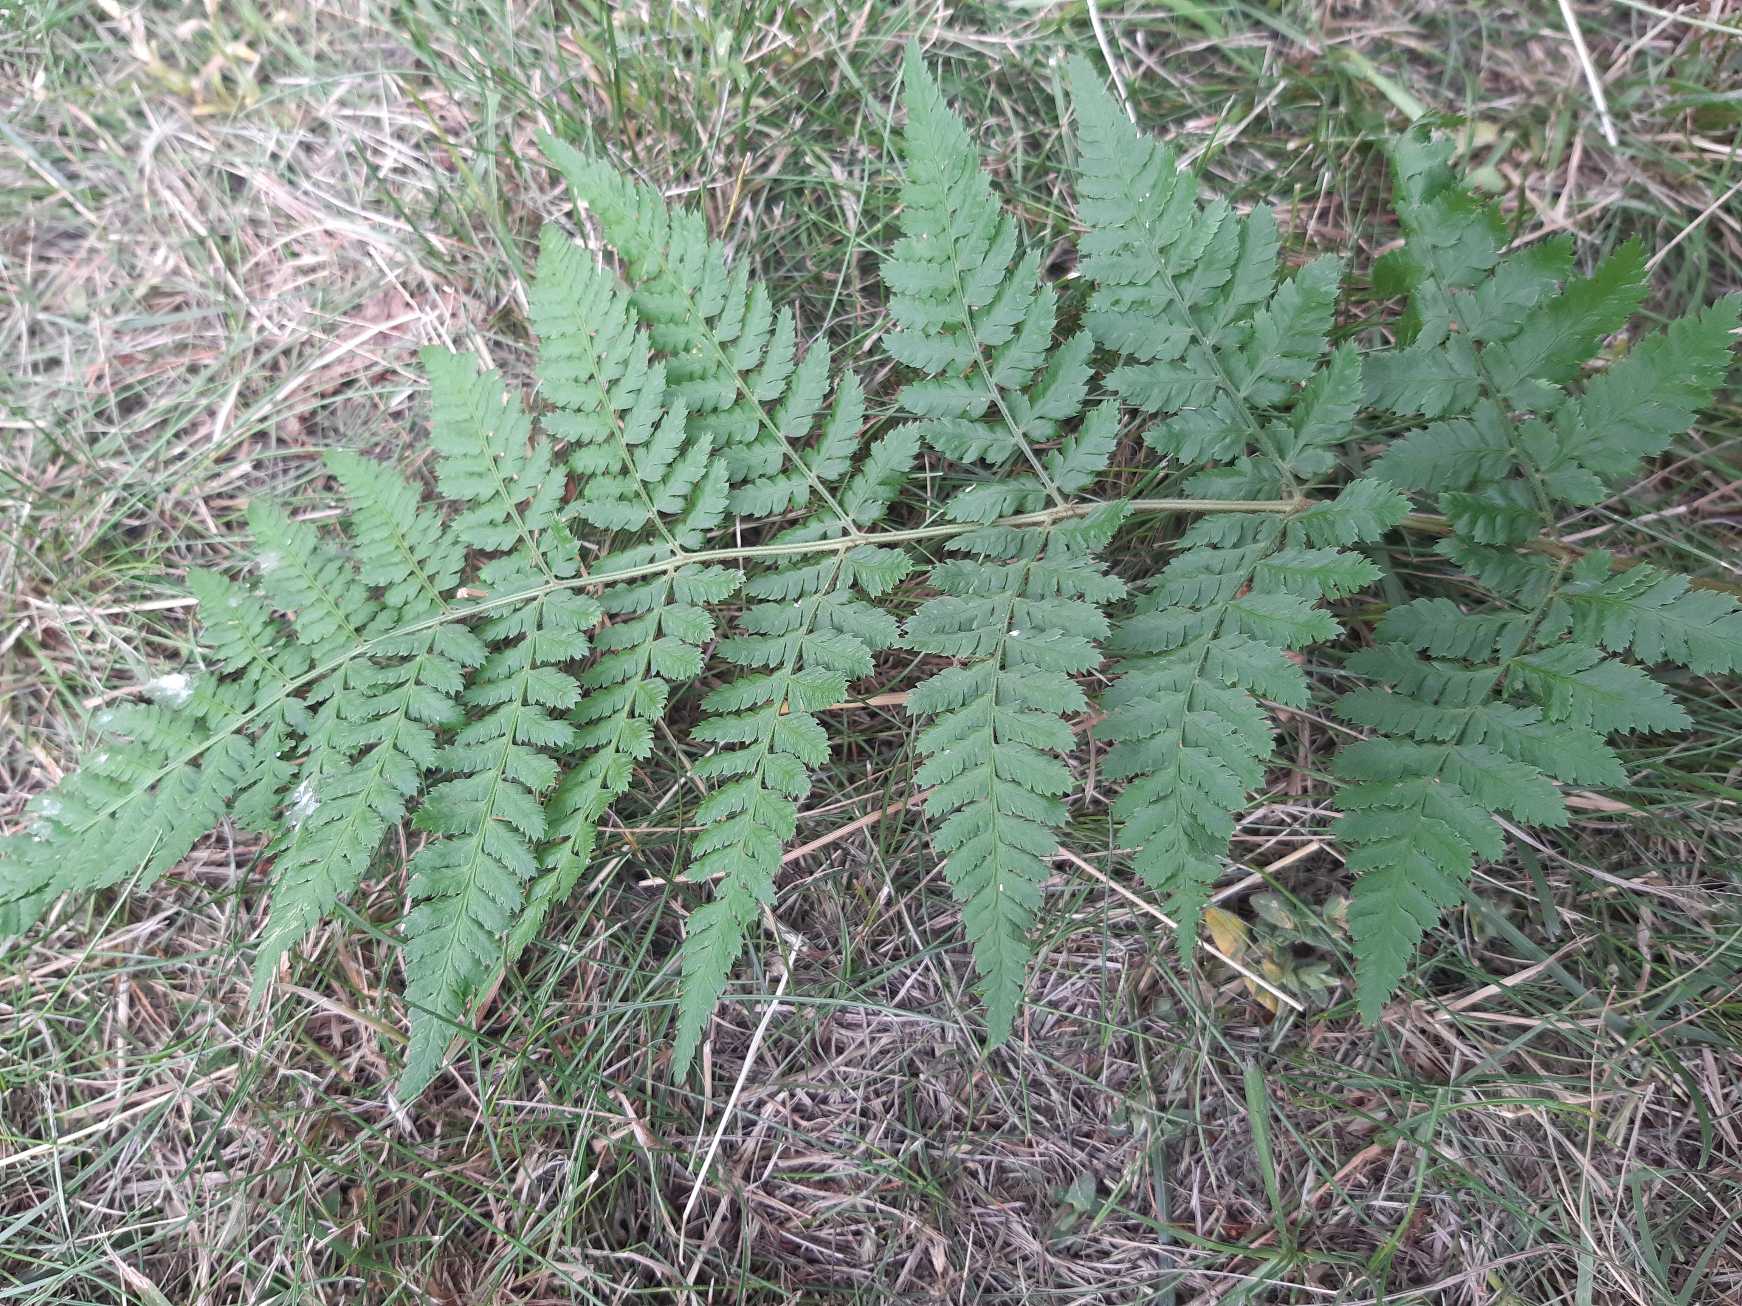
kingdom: Plantae
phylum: Tracheophyta
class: Polypodiopsida
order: Polypodiales
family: Dryopteridaceae
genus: Dryopteris
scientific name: Dryopteris
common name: Mangeløv (Dryopteris-slægten)
